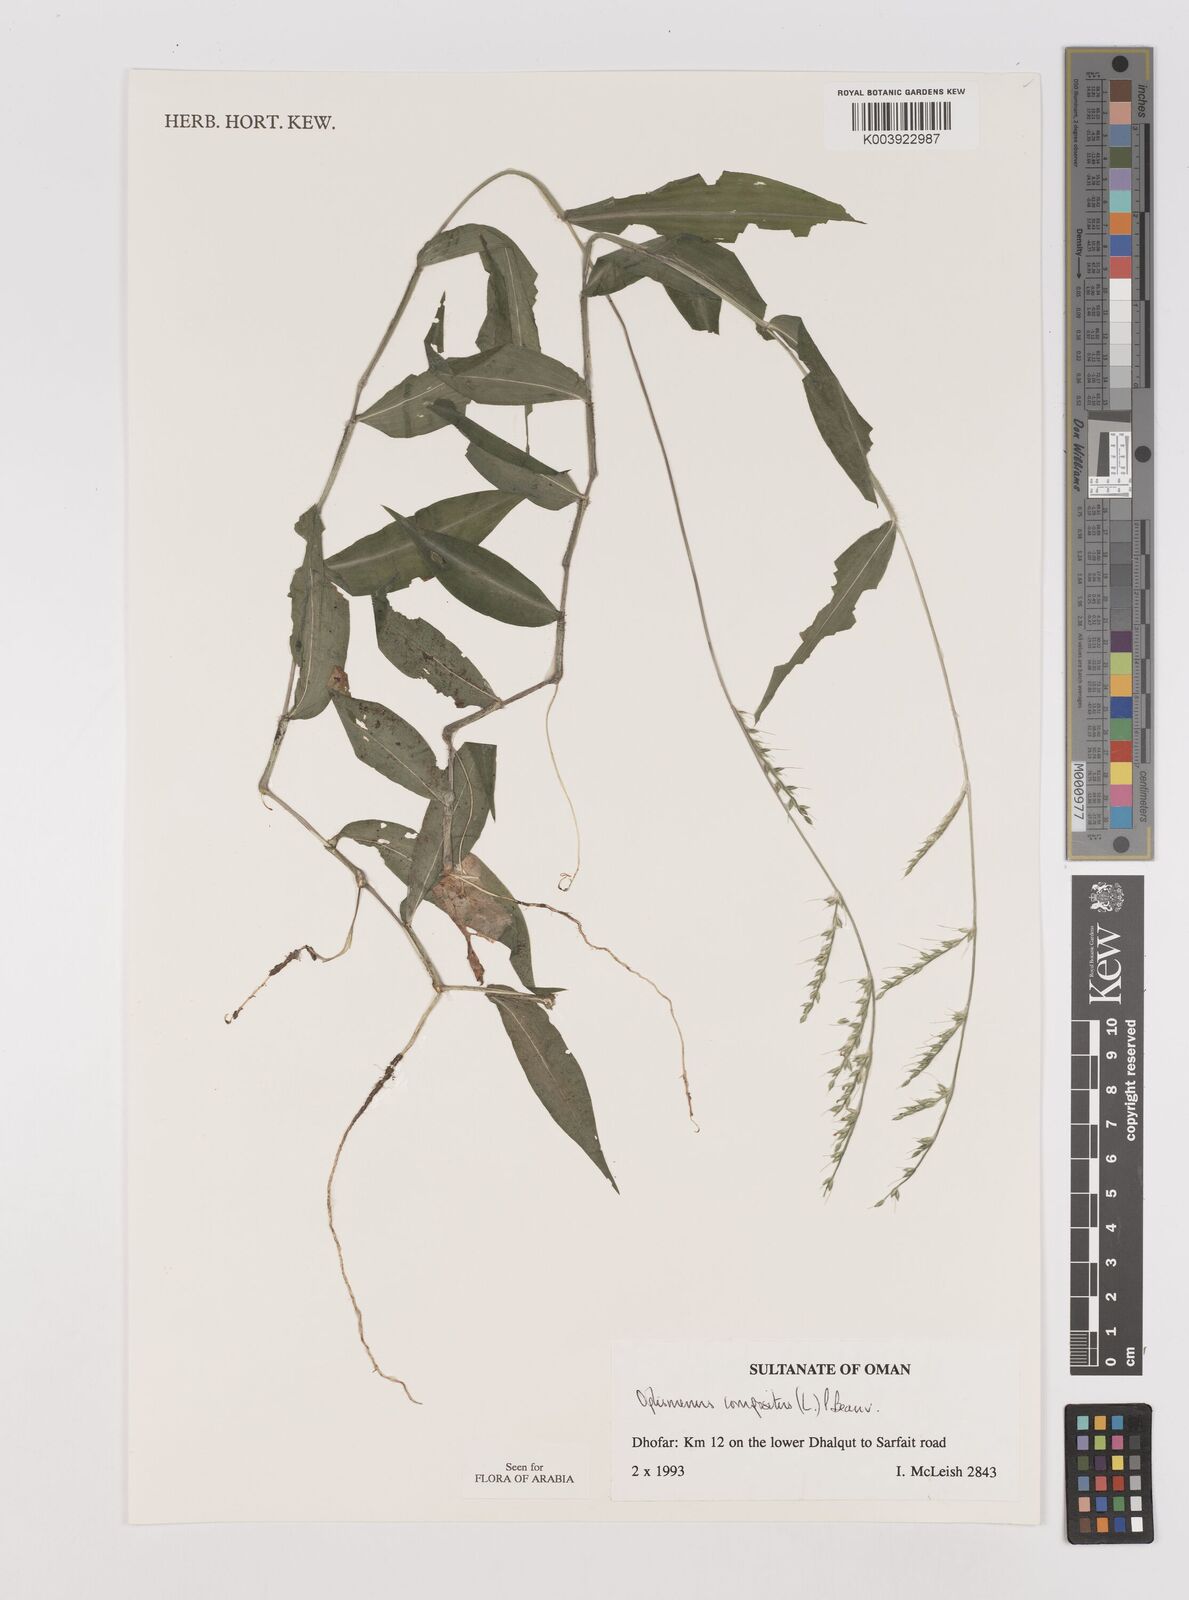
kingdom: Plantae
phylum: Tracheophyta
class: Liliopsida
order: Poales
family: Poaceae
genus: Oplismenus
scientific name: Oplismenus compositus
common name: Running mountain grass
